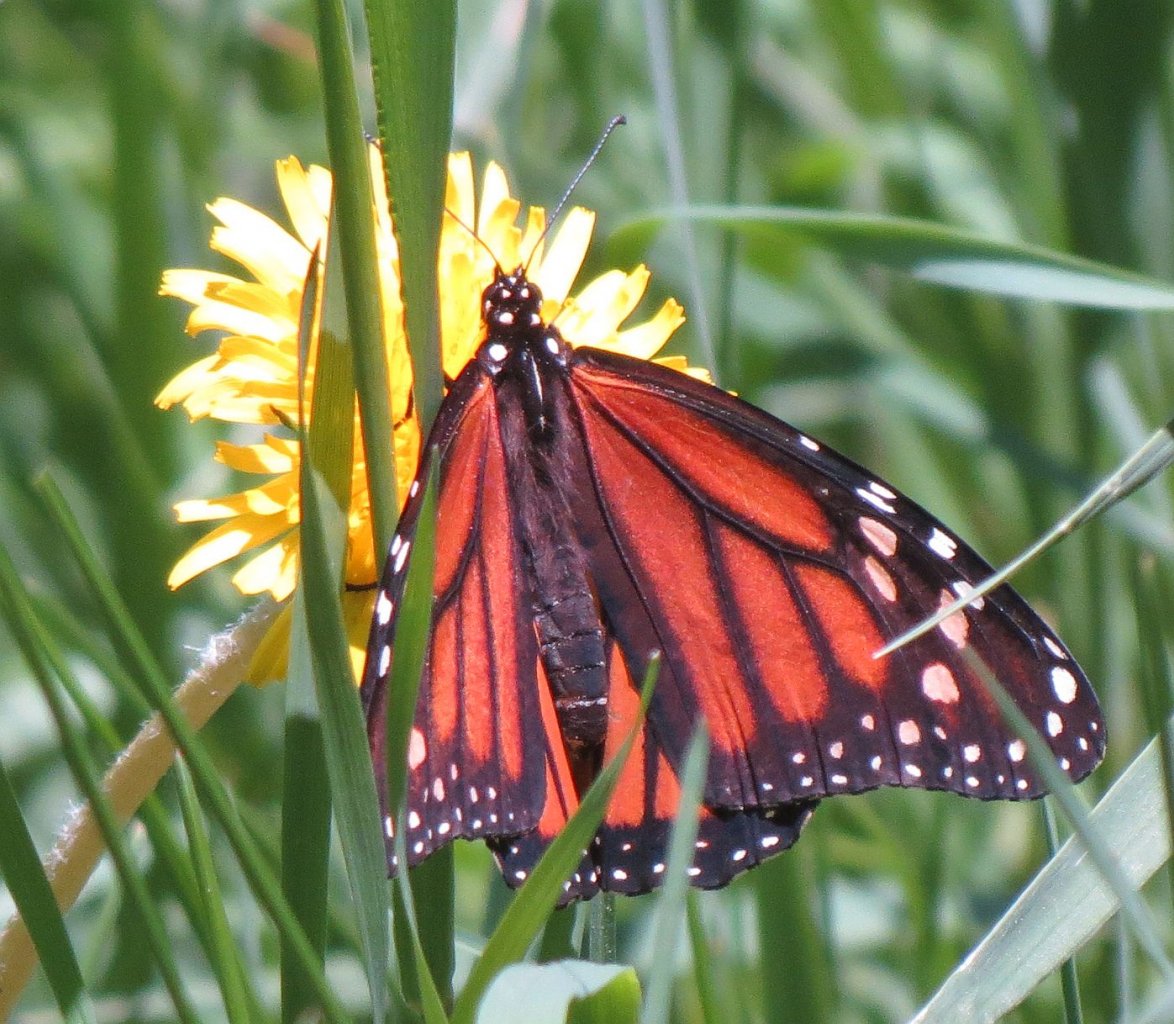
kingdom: Animalia
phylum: Arthropoda
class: Insecta
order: Lepidoptera
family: Nymphalidae
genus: Danaus
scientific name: Danaus plexippus
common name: Monarch
